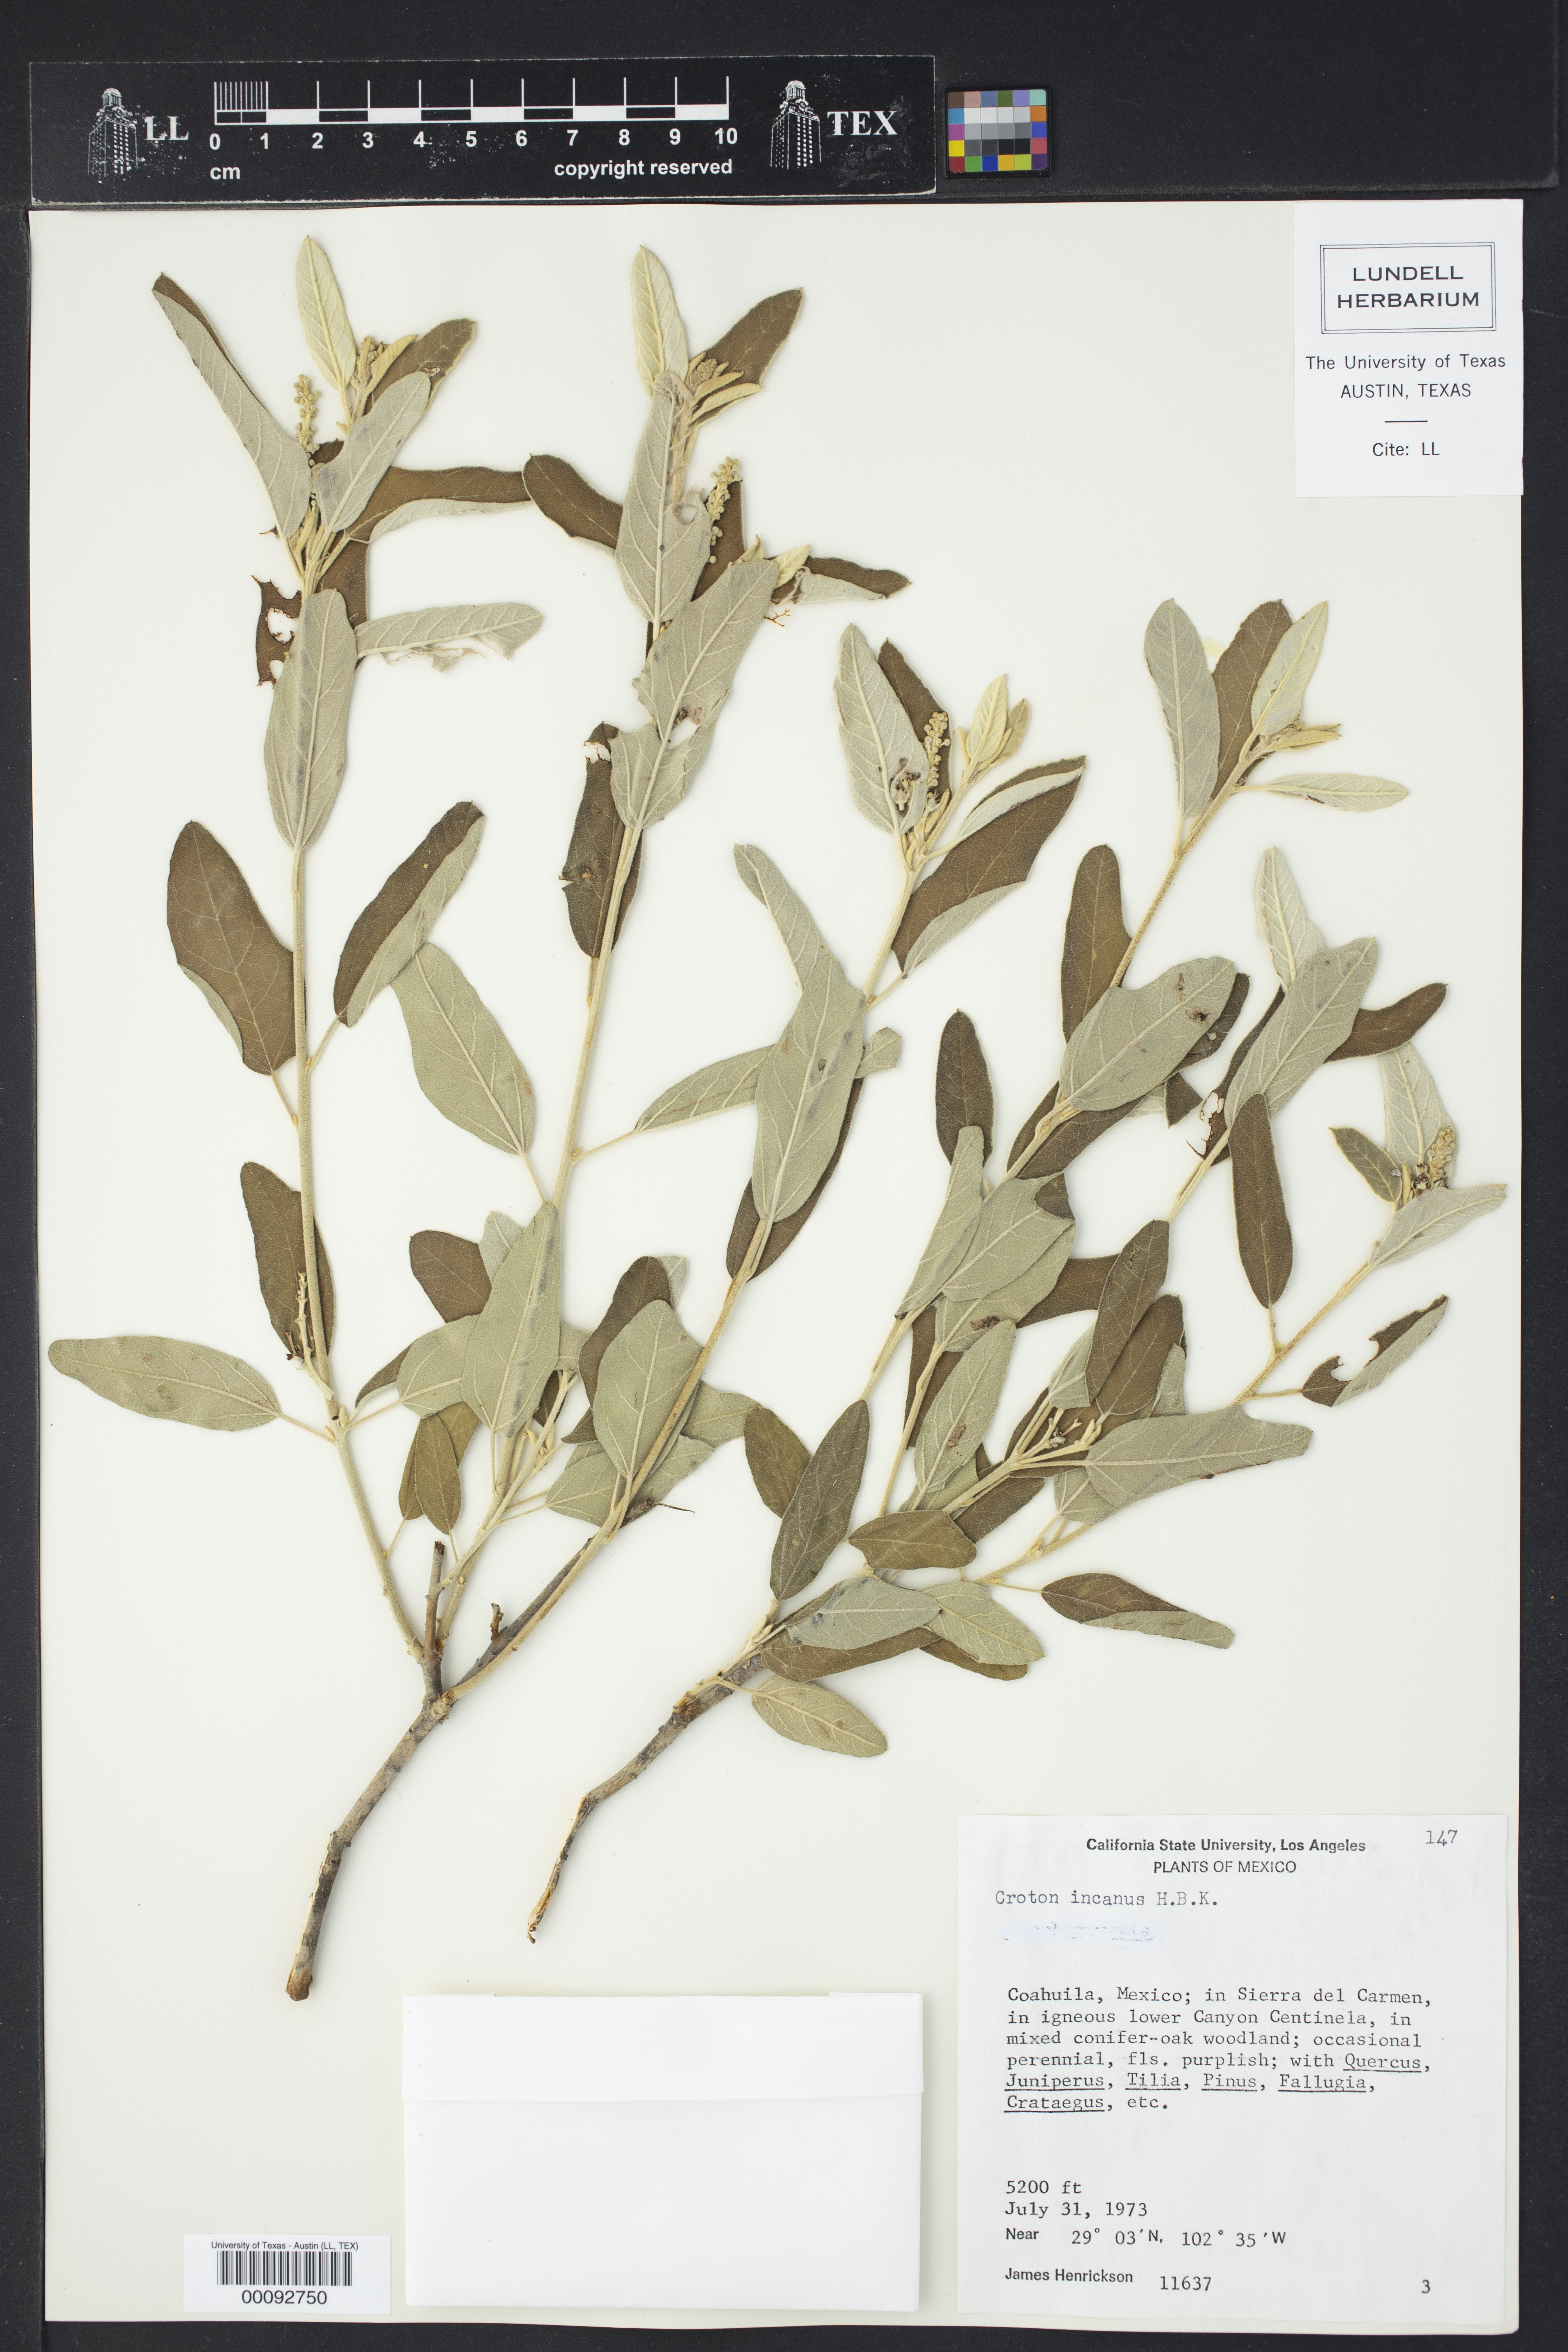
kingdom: Plantae
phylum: Tracheophyta
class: Magnoliopsida
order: Malpighiales
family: Euphorbiaceae
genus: Croton
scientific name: Croton incanus
